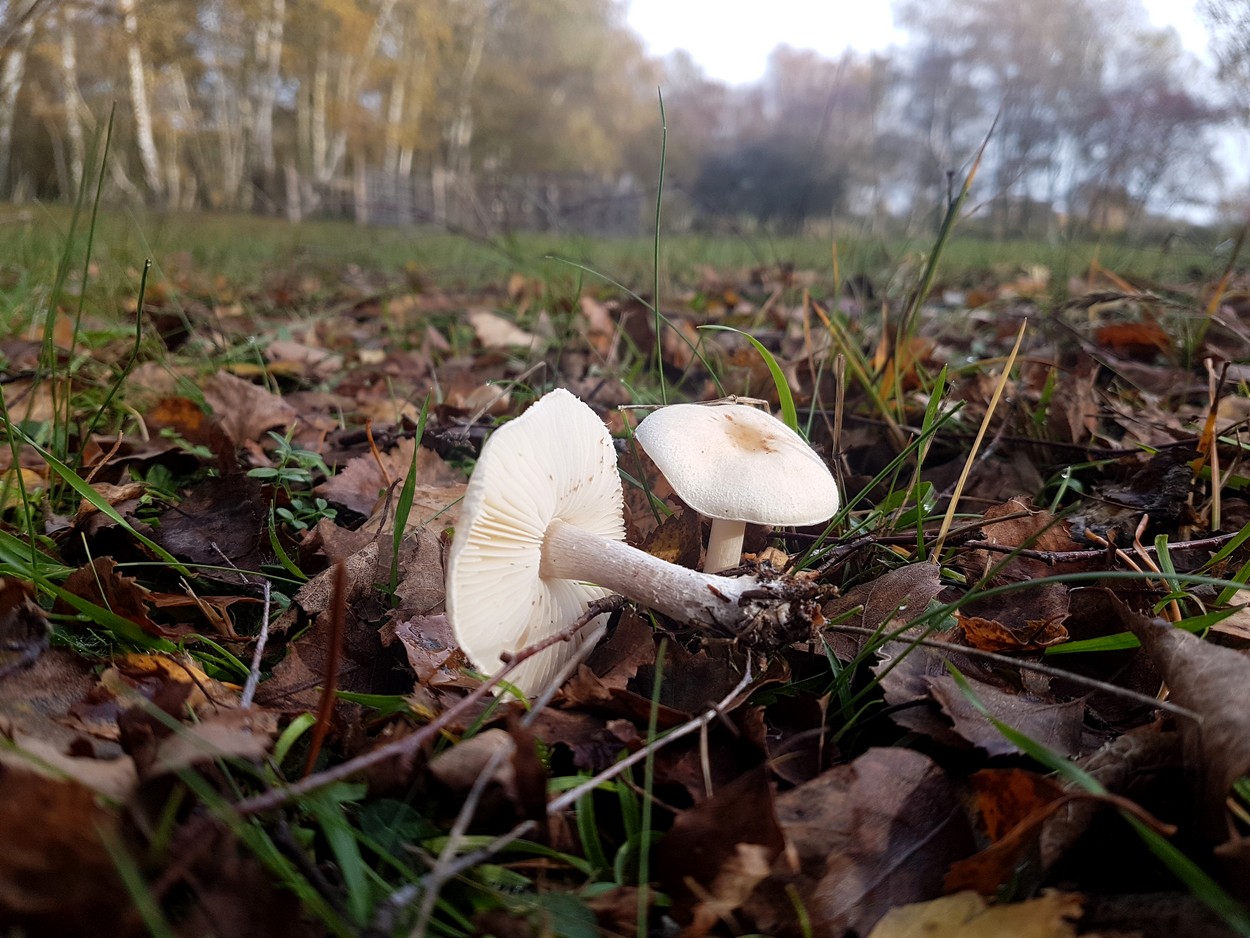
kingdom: Fungi
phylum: Basidiomycota
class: Agaricomycetes
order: Agaricales
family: Agaricaceae
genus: Lepiota
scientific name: Lepiota erminea
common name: hvid parasolhat
